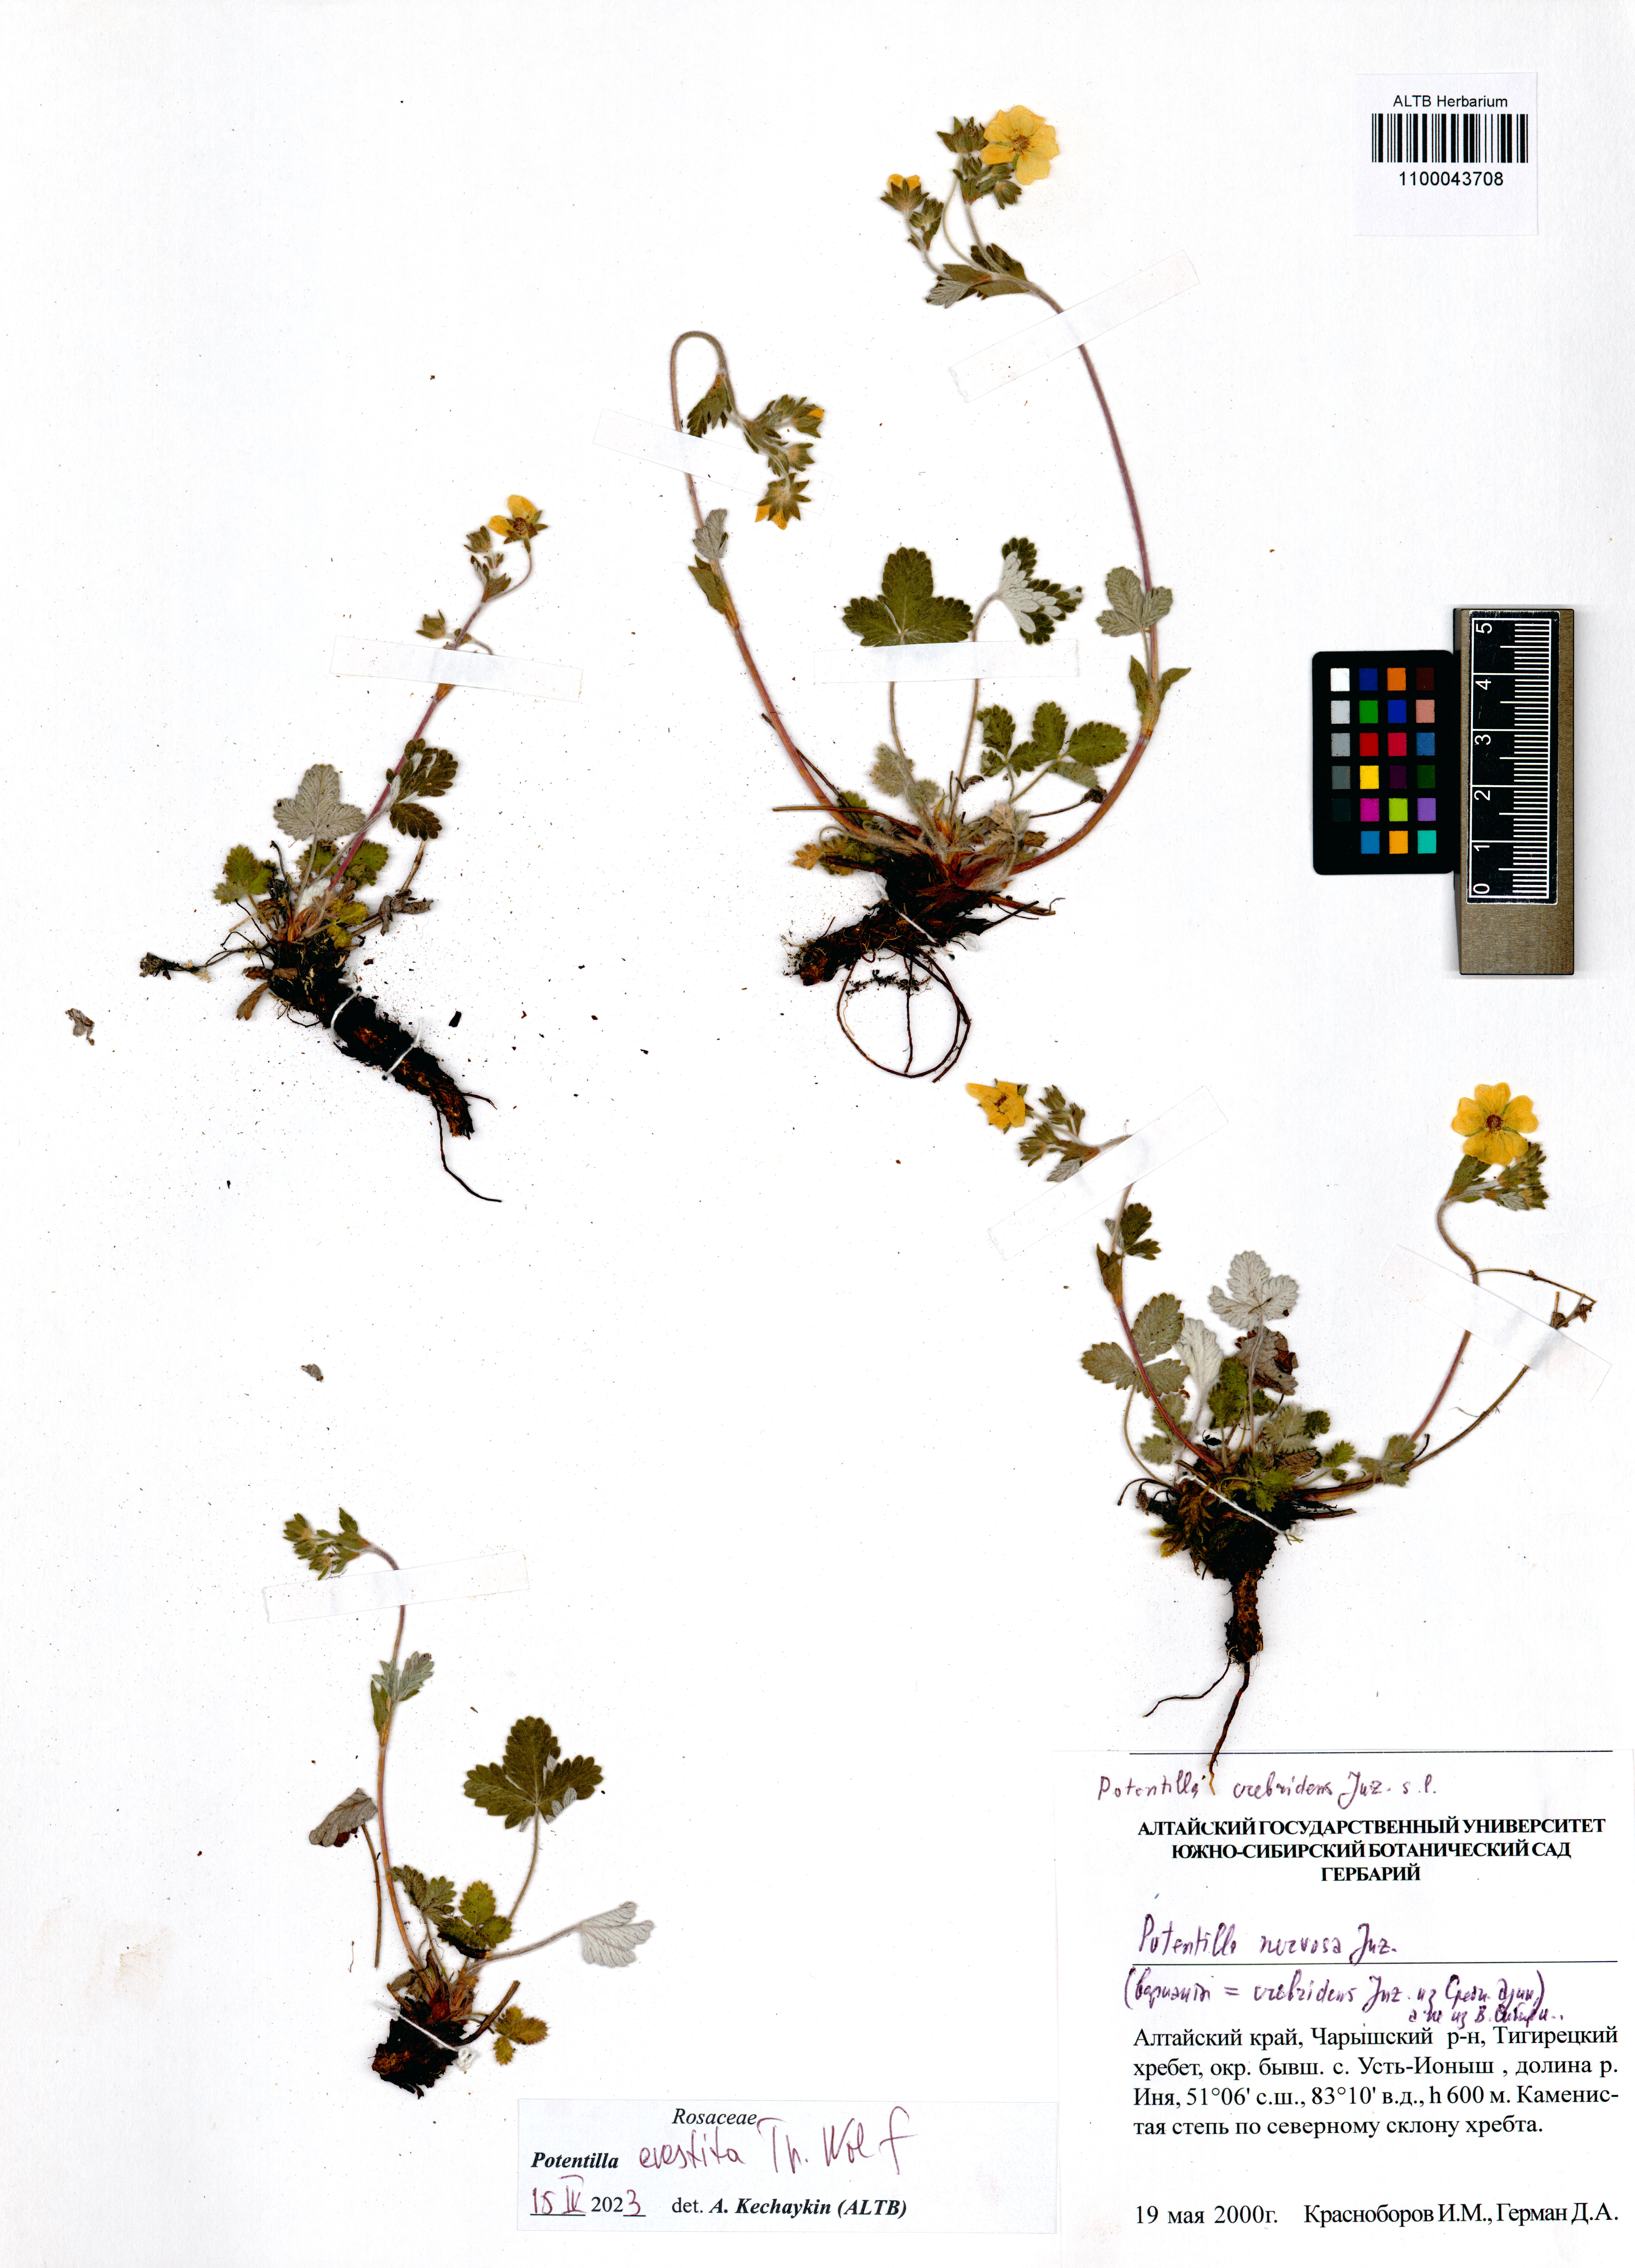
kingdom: Plantae
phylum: Tracheophyta
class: Magnoliopsida
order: Rosales
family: Rosaceae
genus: Potentilla
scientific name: Potentilla evestita
